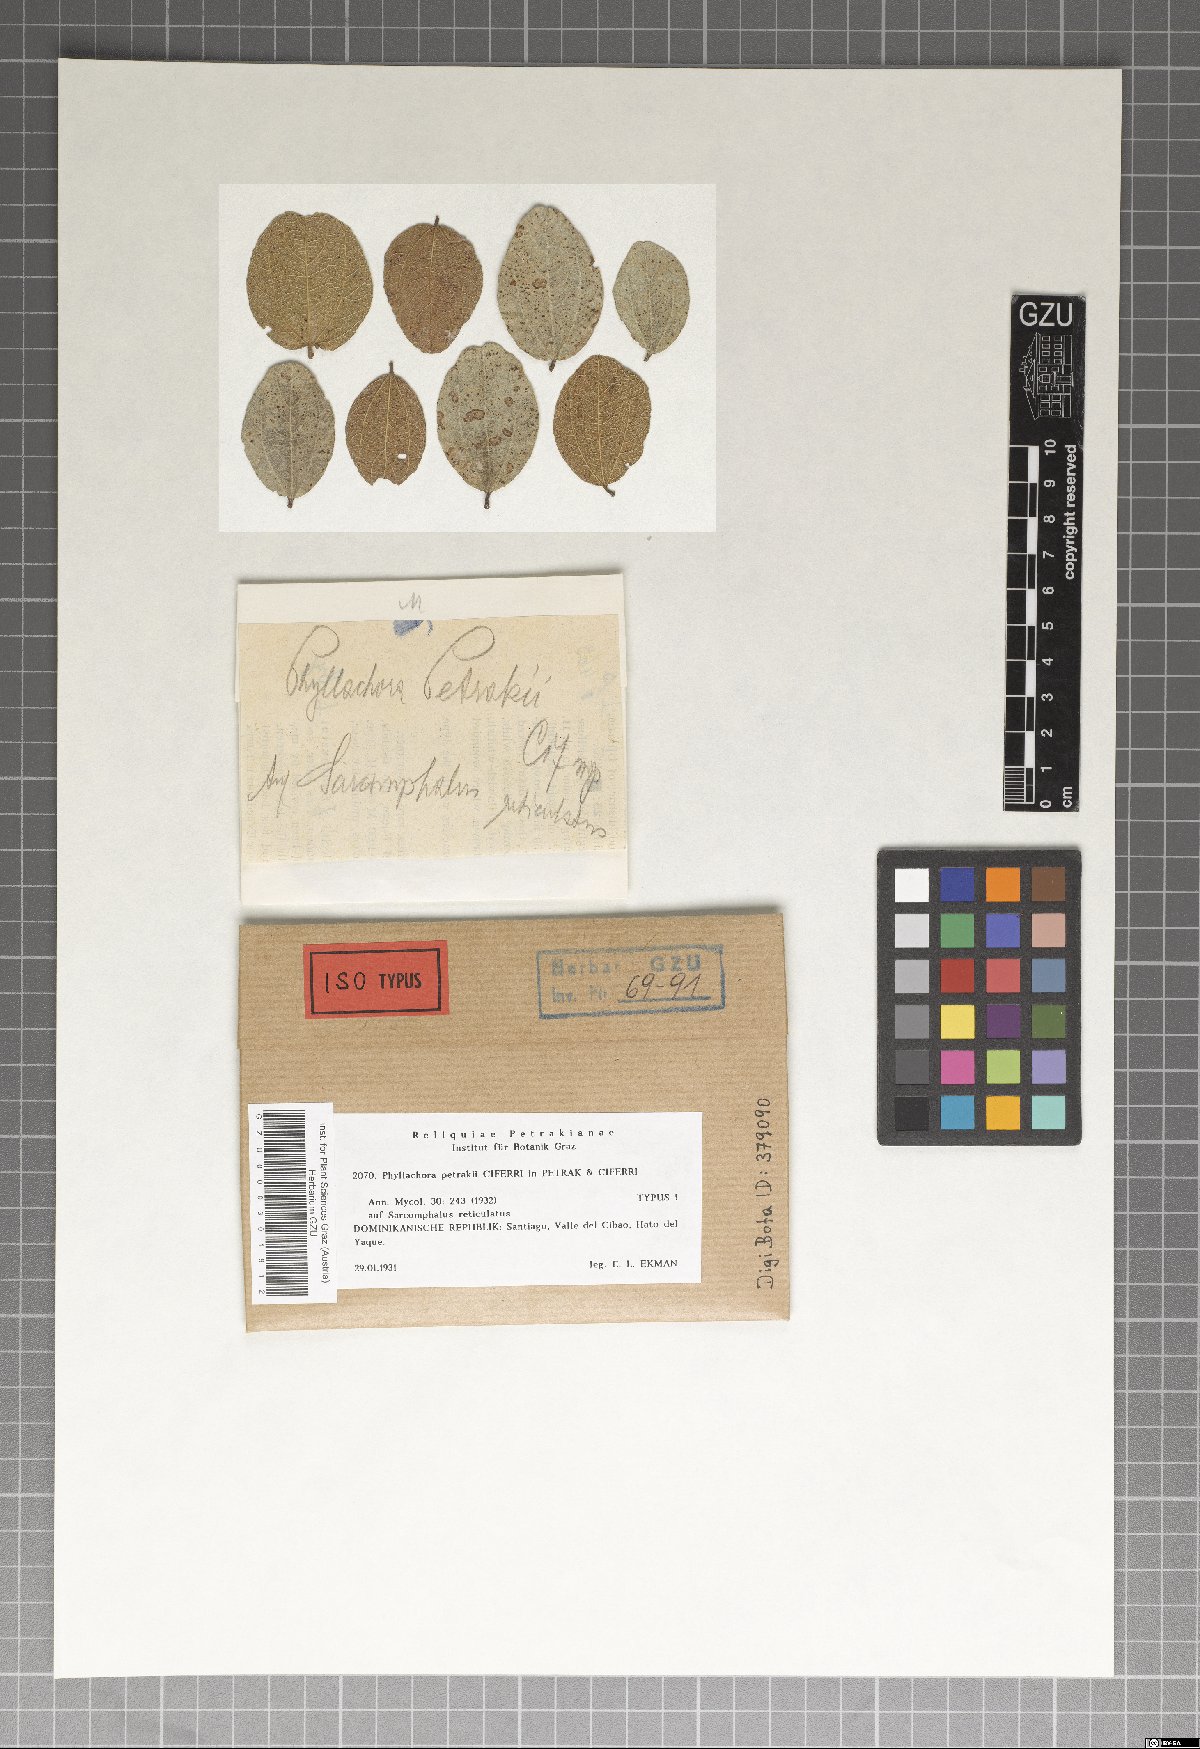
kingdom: Fungi
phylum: Ascomycota
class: Sordariomycetes
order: Phyllachorales
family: Phyllachoraceae
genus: Oxodeora
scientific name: Oxodeora petrakii
